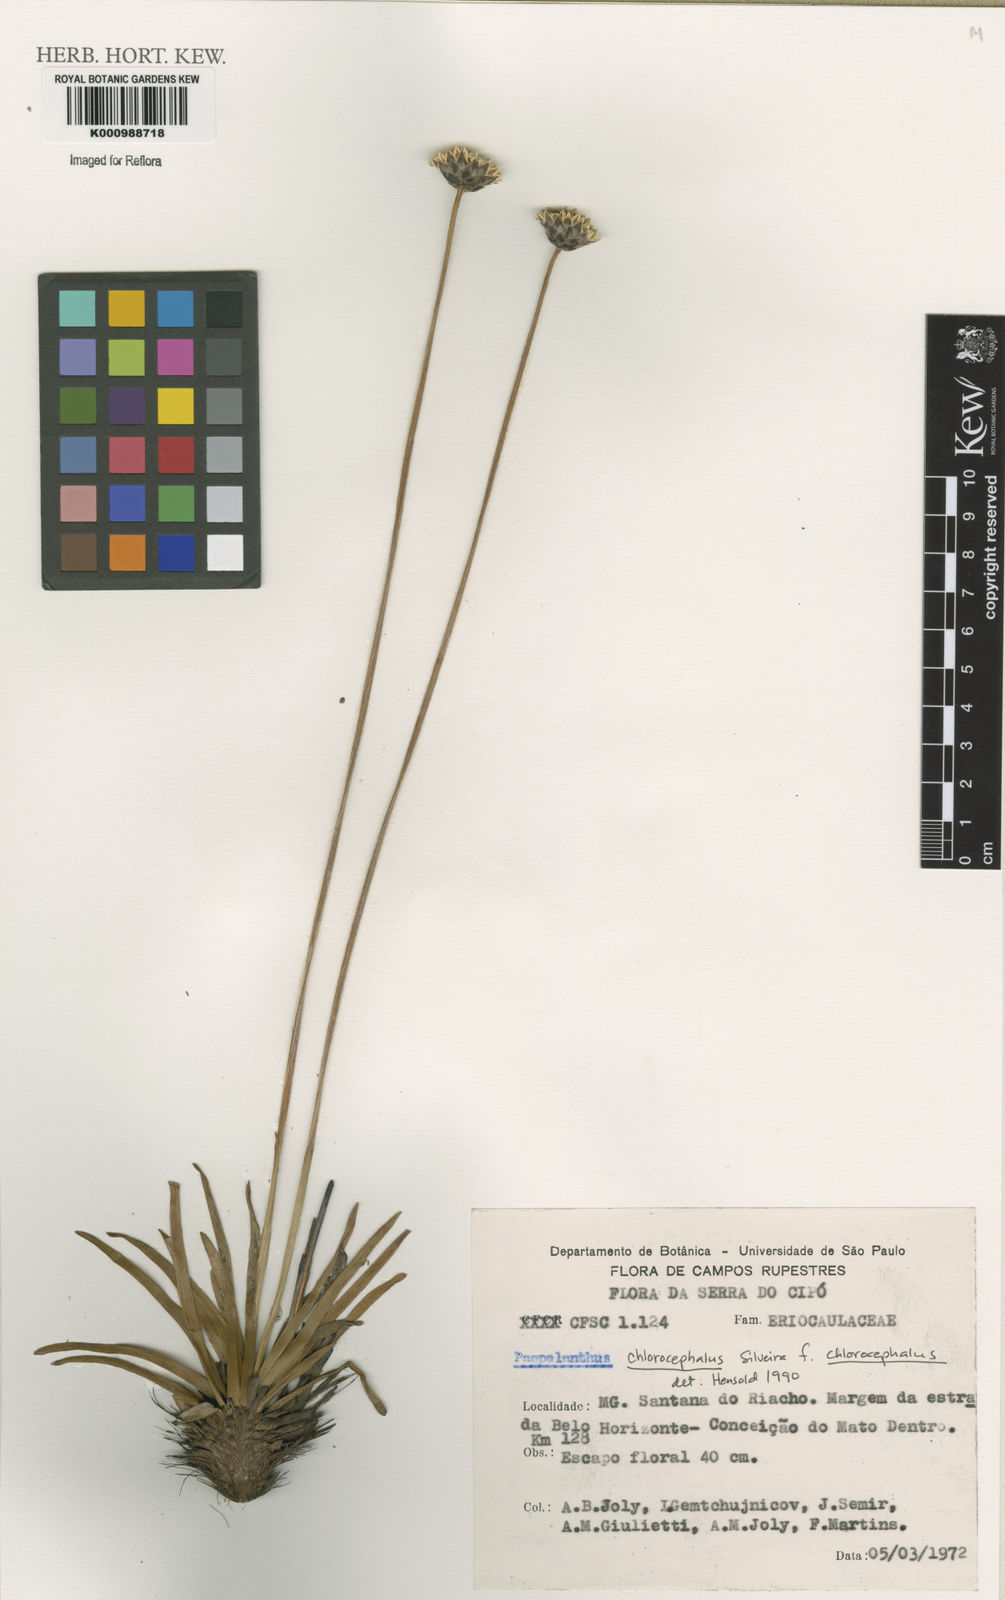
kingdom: Plantae
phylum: Tracheophyta
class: Liliopsida
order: Poales
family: Eriocaulaceae
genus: Paepalanthus
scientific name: Paepalanthus chlorocephalus
